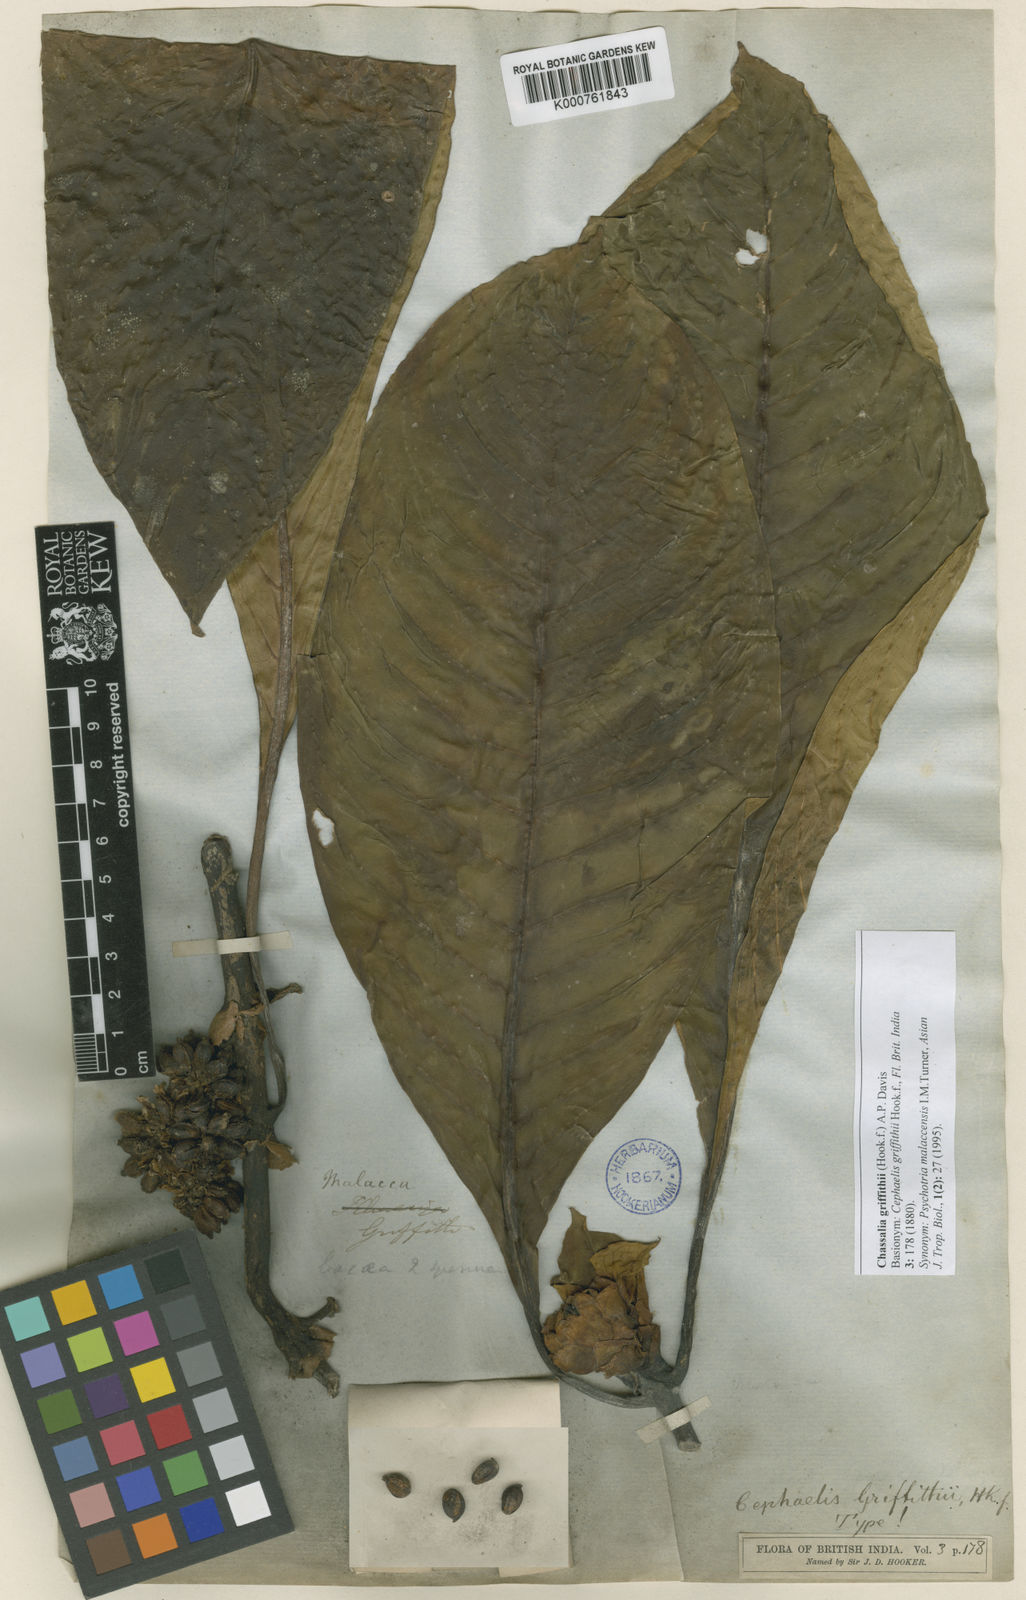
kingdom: Plantae
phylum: Tracheophyta
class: Magnoliopsida
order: Gentianales
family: Rubiaceae
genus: Chassalia
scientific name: Chassalia griffithii
